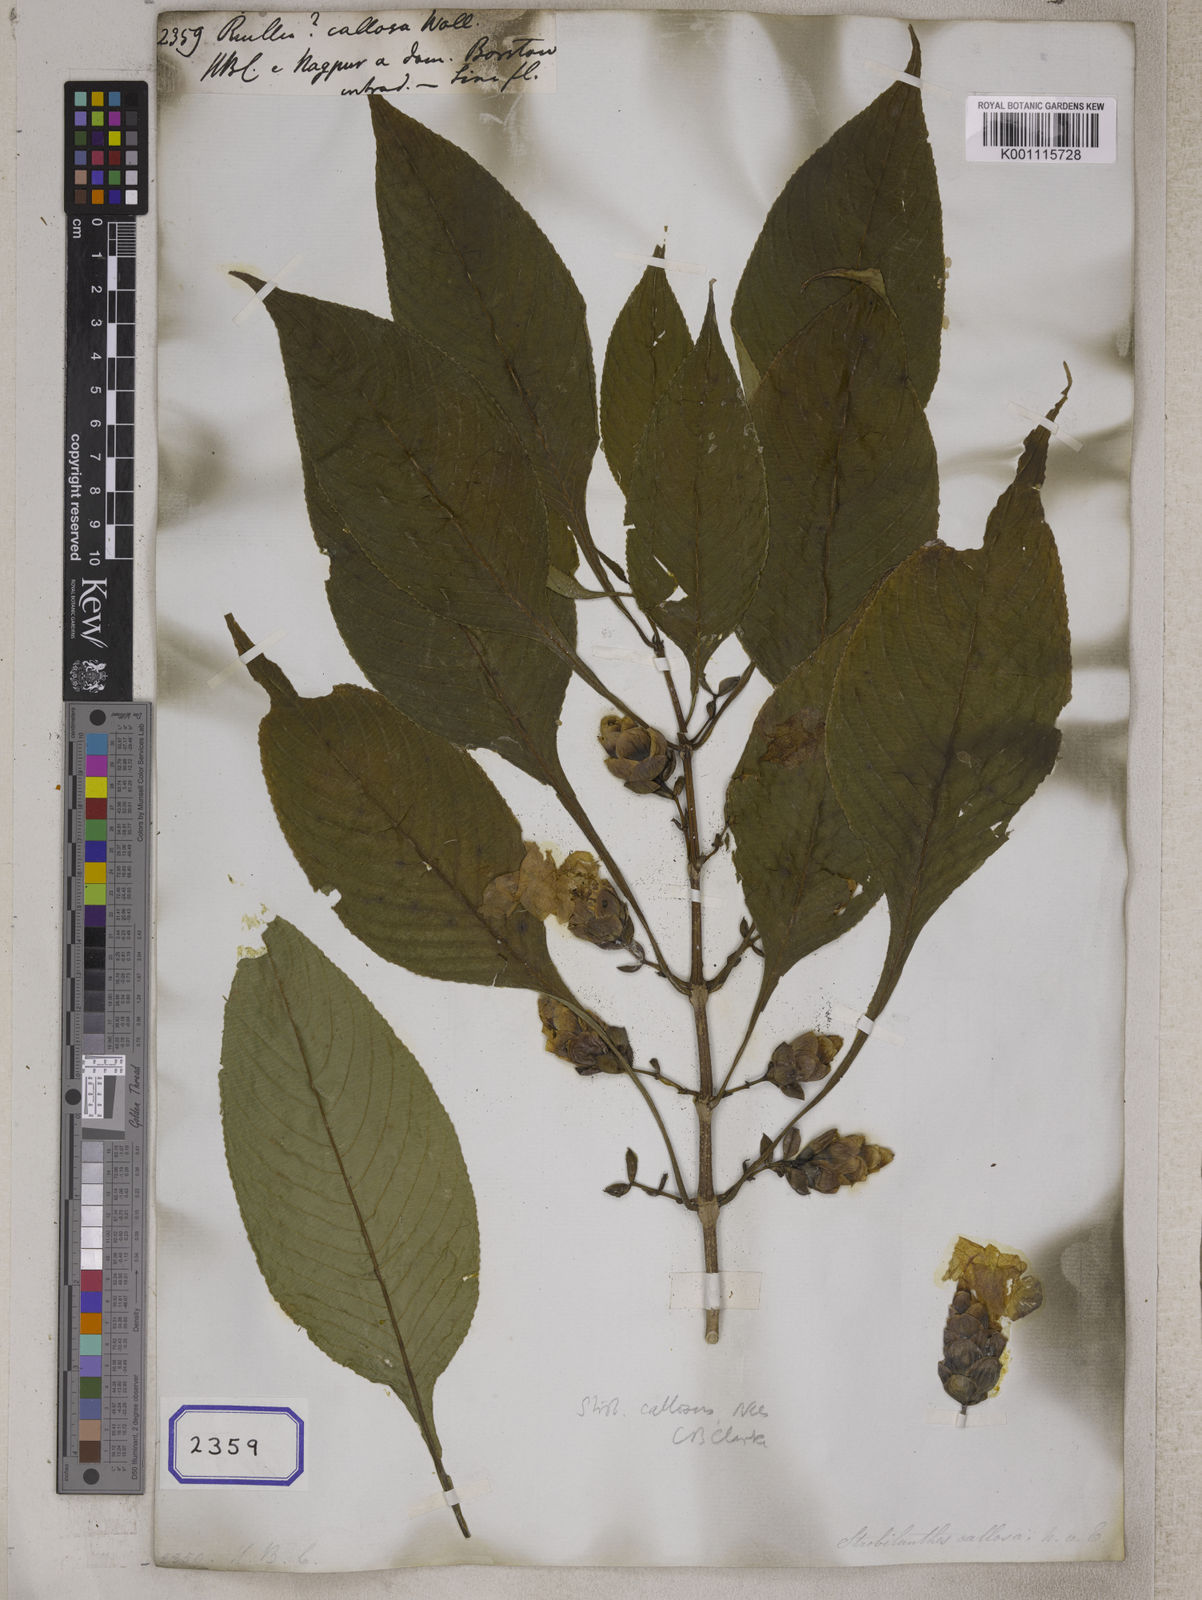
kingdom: Plantae
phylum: Tracheophyta
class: Magnoliopsida
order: Lamiales
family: Acanthaceae
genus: Strobilanthes
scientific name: Strobilanthes callosa
